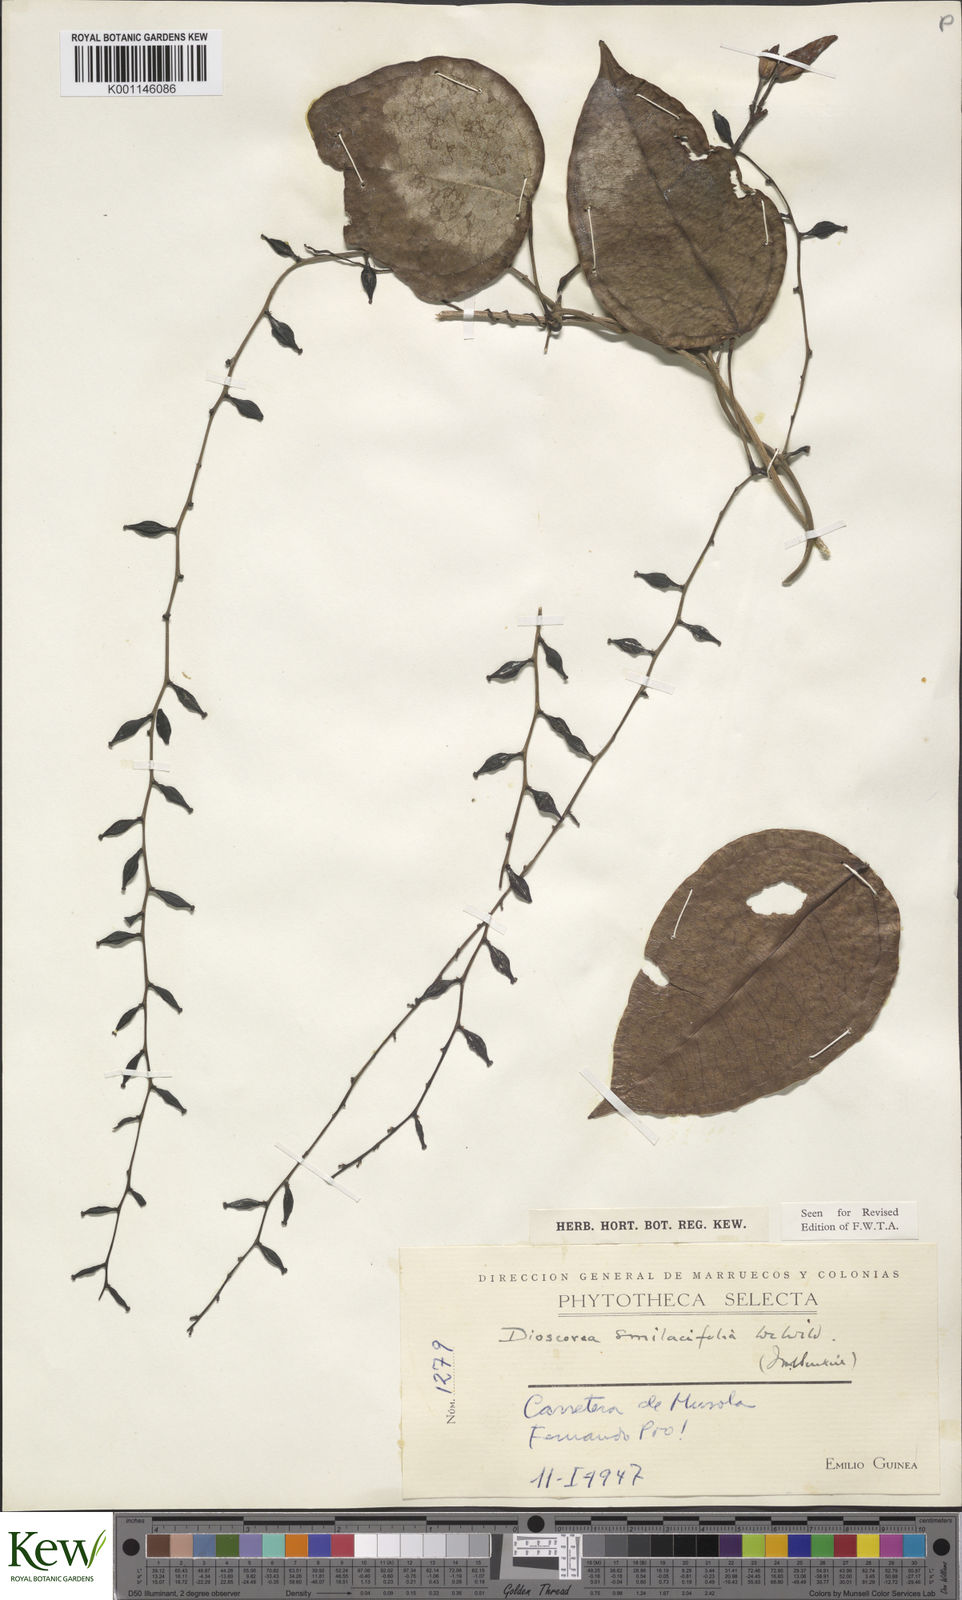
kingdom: Plantae
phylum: Tracheophyta
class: Liliopsida
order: Dioscoreales
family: Dioscoreaceae
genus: Dioscorea
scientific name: Dioscorea smilacifolia
